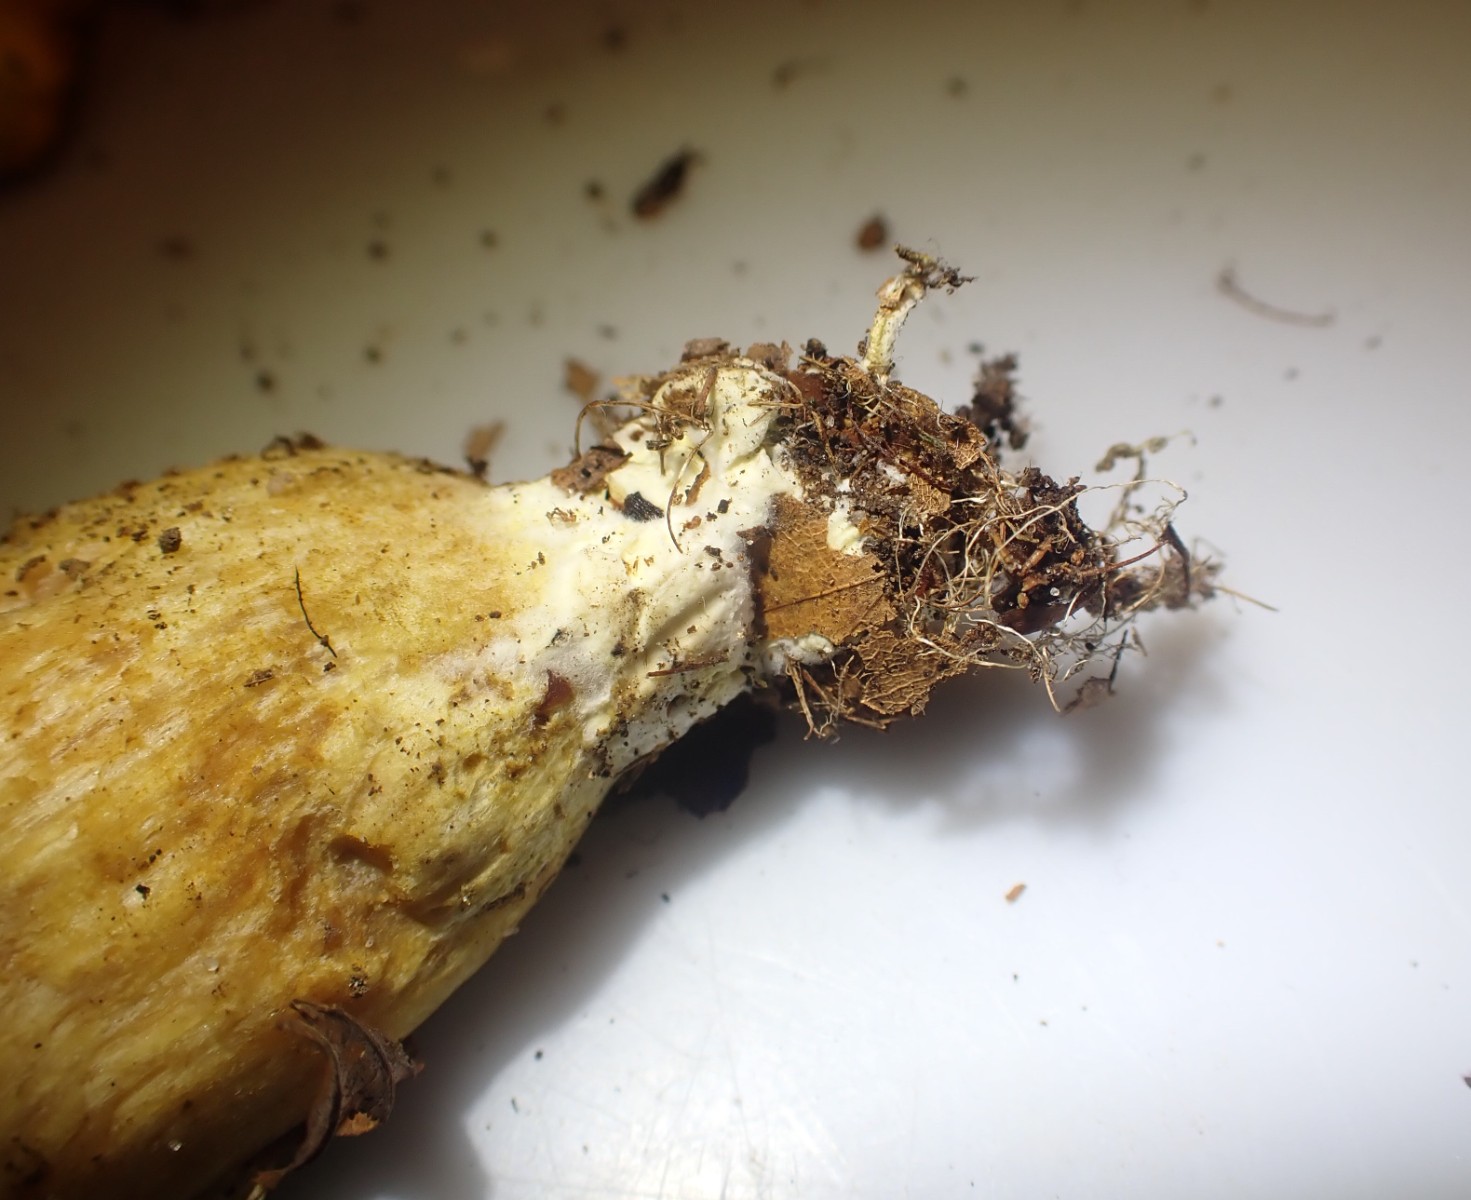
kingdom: Fungi
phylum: Basidiomycota
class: Agaricomycetes
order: Boletales
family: Boletaceae
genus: Xerocomus
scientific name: Xerocomus subtomentosus
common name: filtet rørhat
